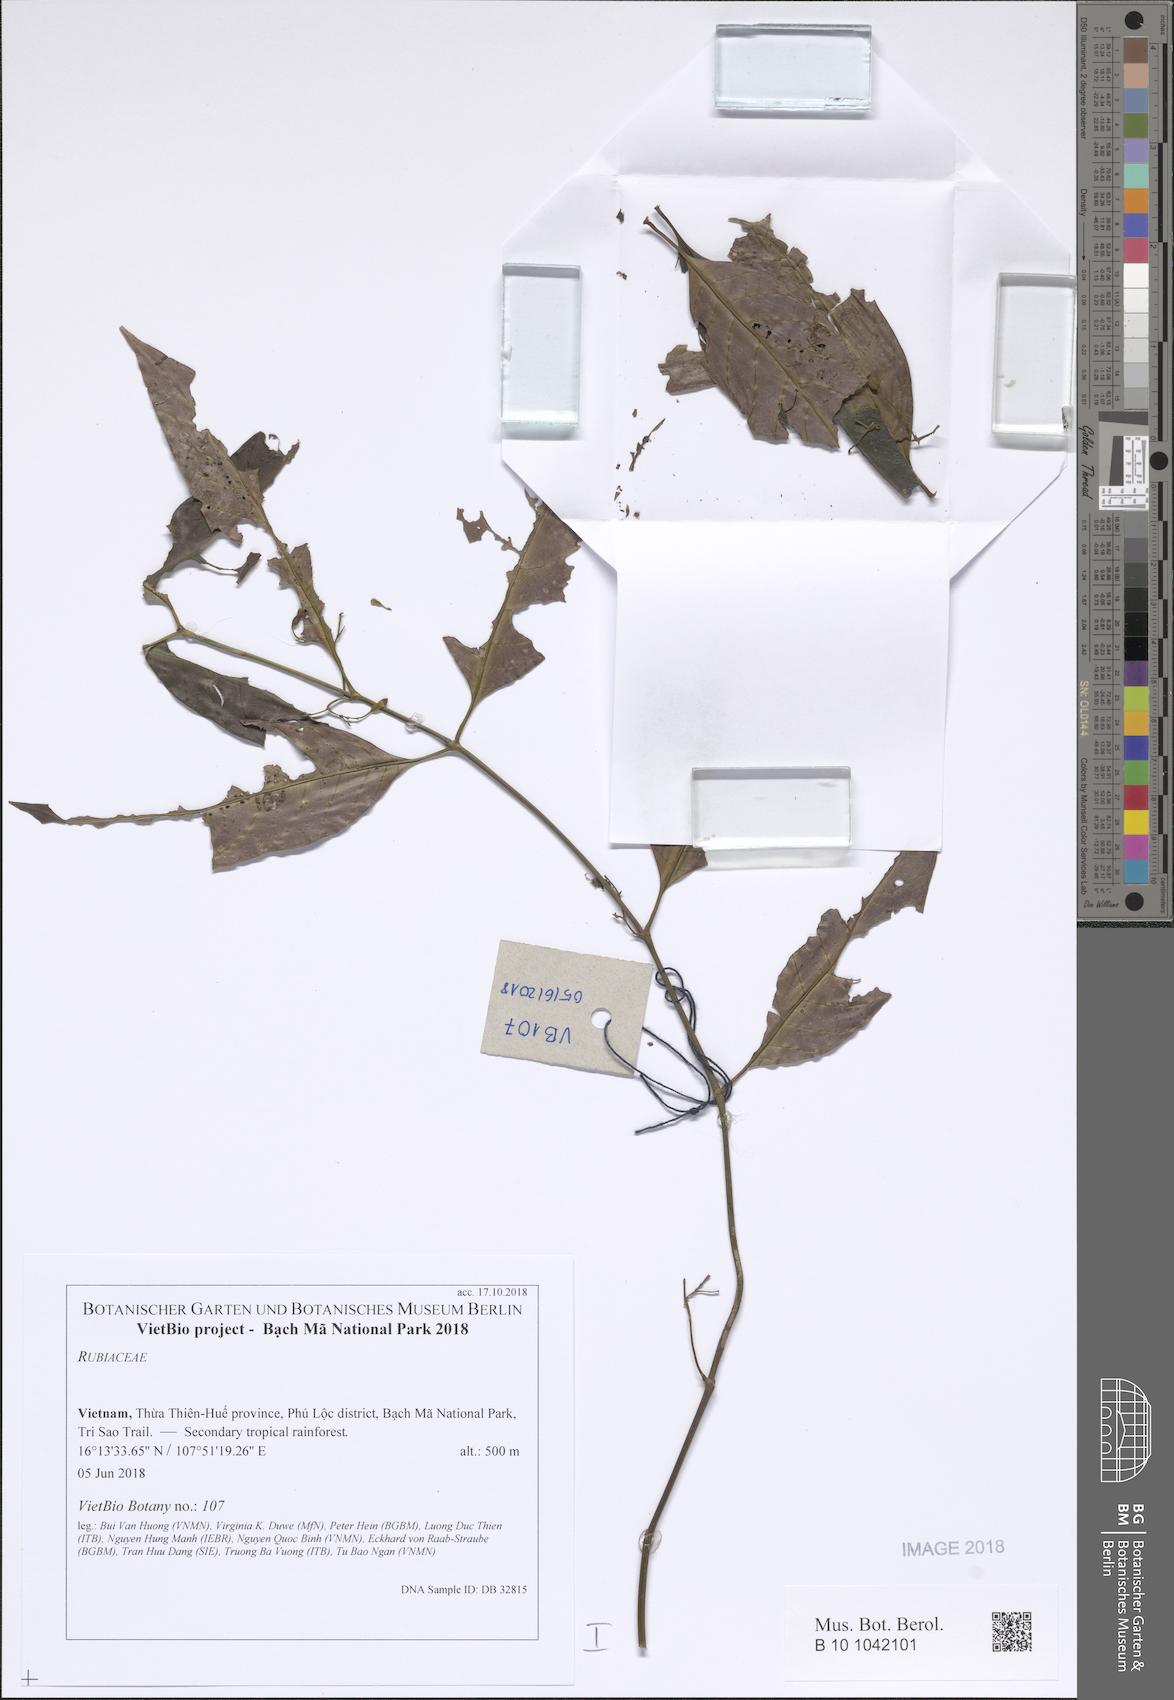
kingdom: Plantae
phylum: Tracheophyta
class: Magnoliopsida
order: Gentianales
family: Rubiaceae
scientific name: Rubiaceae
